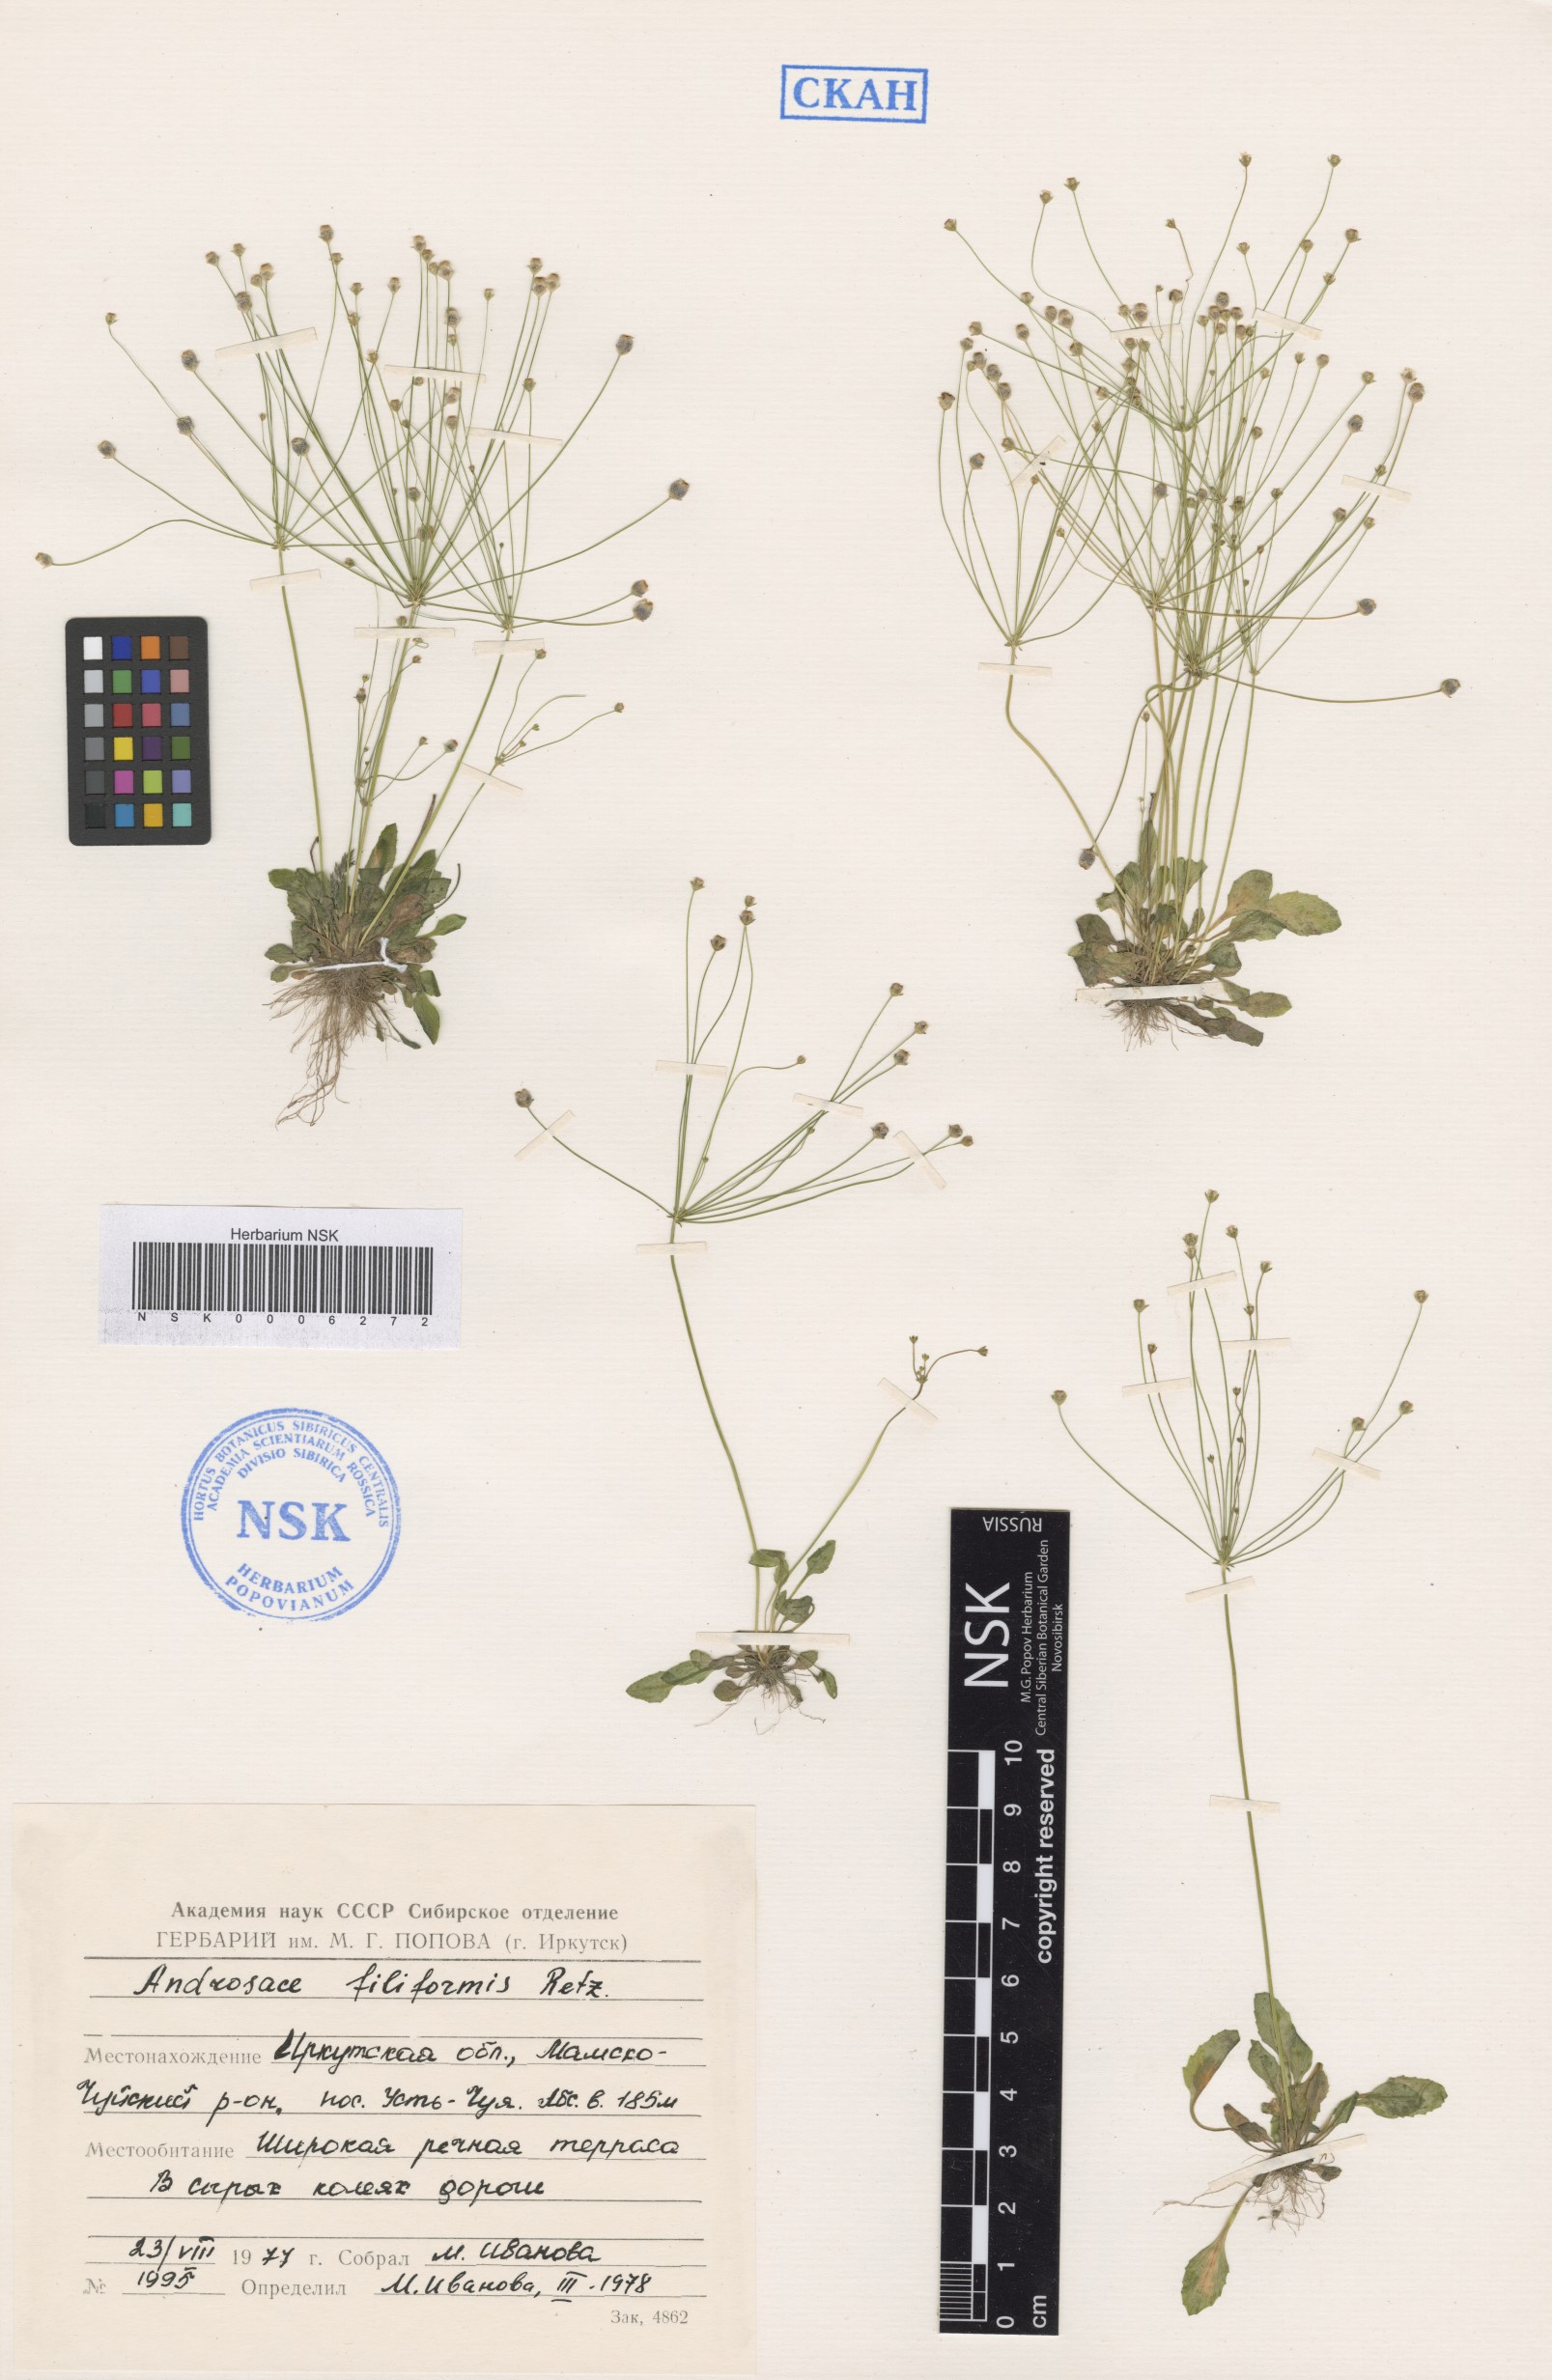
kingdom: Plantae
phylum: Tracheophyta
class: Magnoliopsida
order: Ericales
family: Primulaceae
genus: Androsace
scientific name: Androsace filiformis
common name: Filiform rock jasmine
